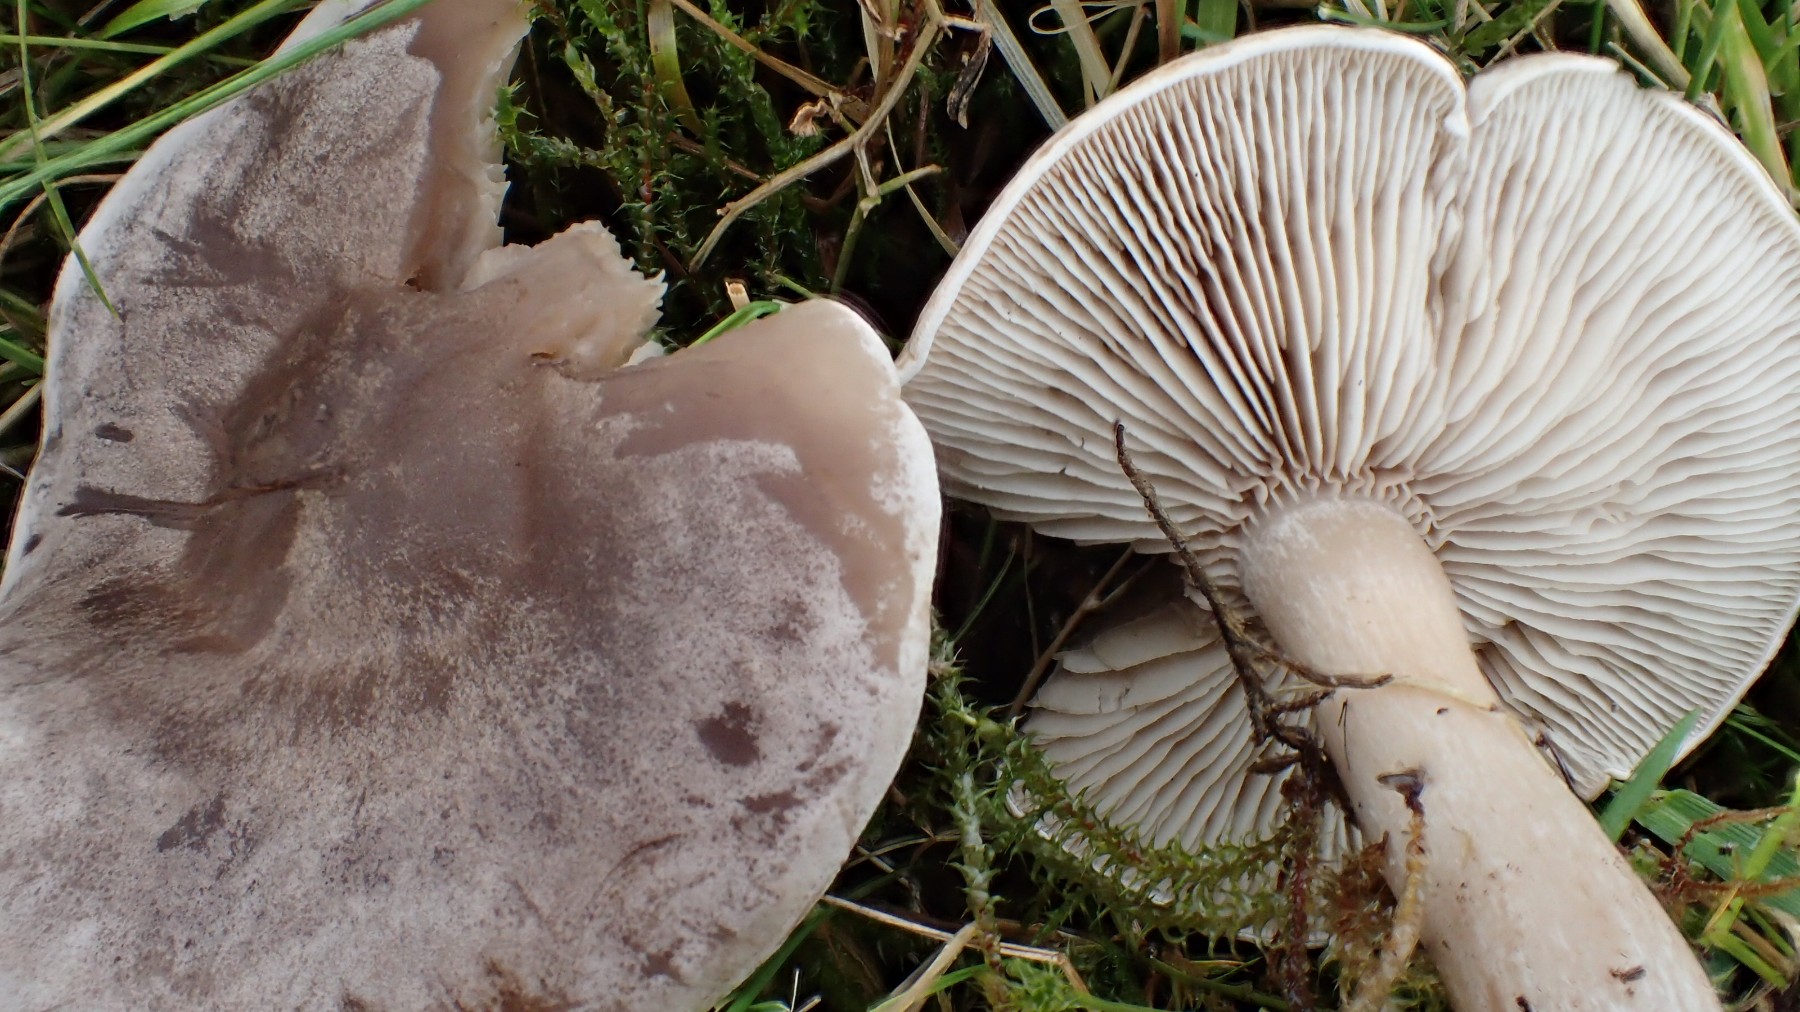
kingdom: Fungi
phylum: Basidiomycota
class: Agaricomycetes
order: Agaricales
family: Tricholomataceae
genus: Lepista
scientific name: Lepista panaeolus
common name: marmoreret hekseringshat
